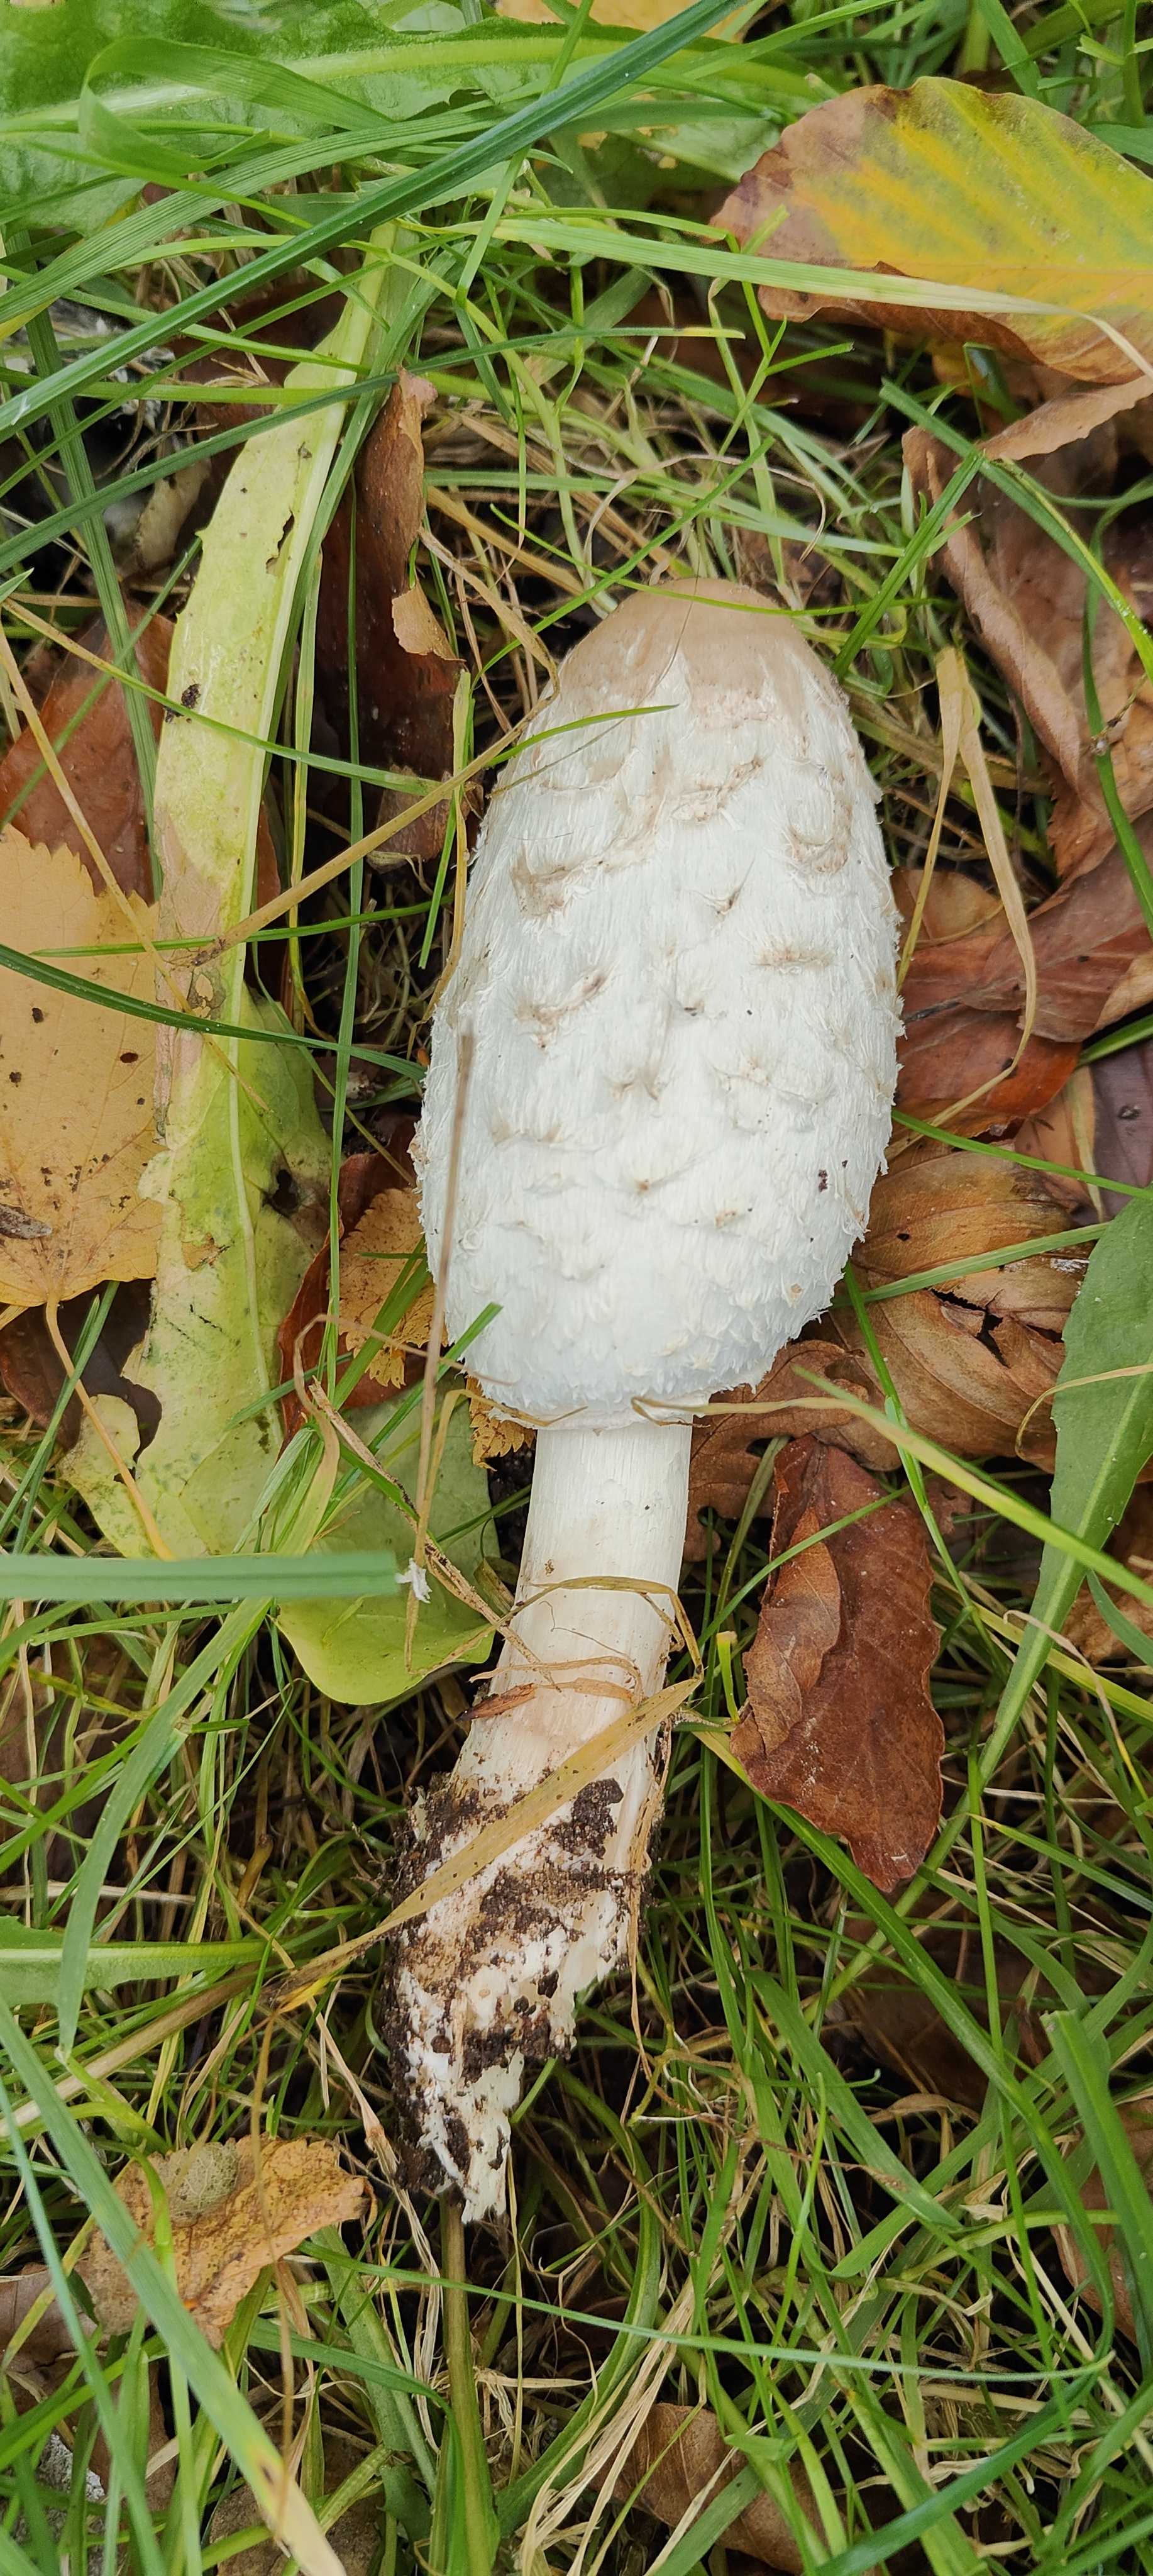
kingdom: Fungi
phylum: Basidiomycota
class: Agaricomycetes
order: Agaricales
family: Agaricaceae
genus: Coprinus
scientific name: Coprinus comatus
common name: stor parykhat
